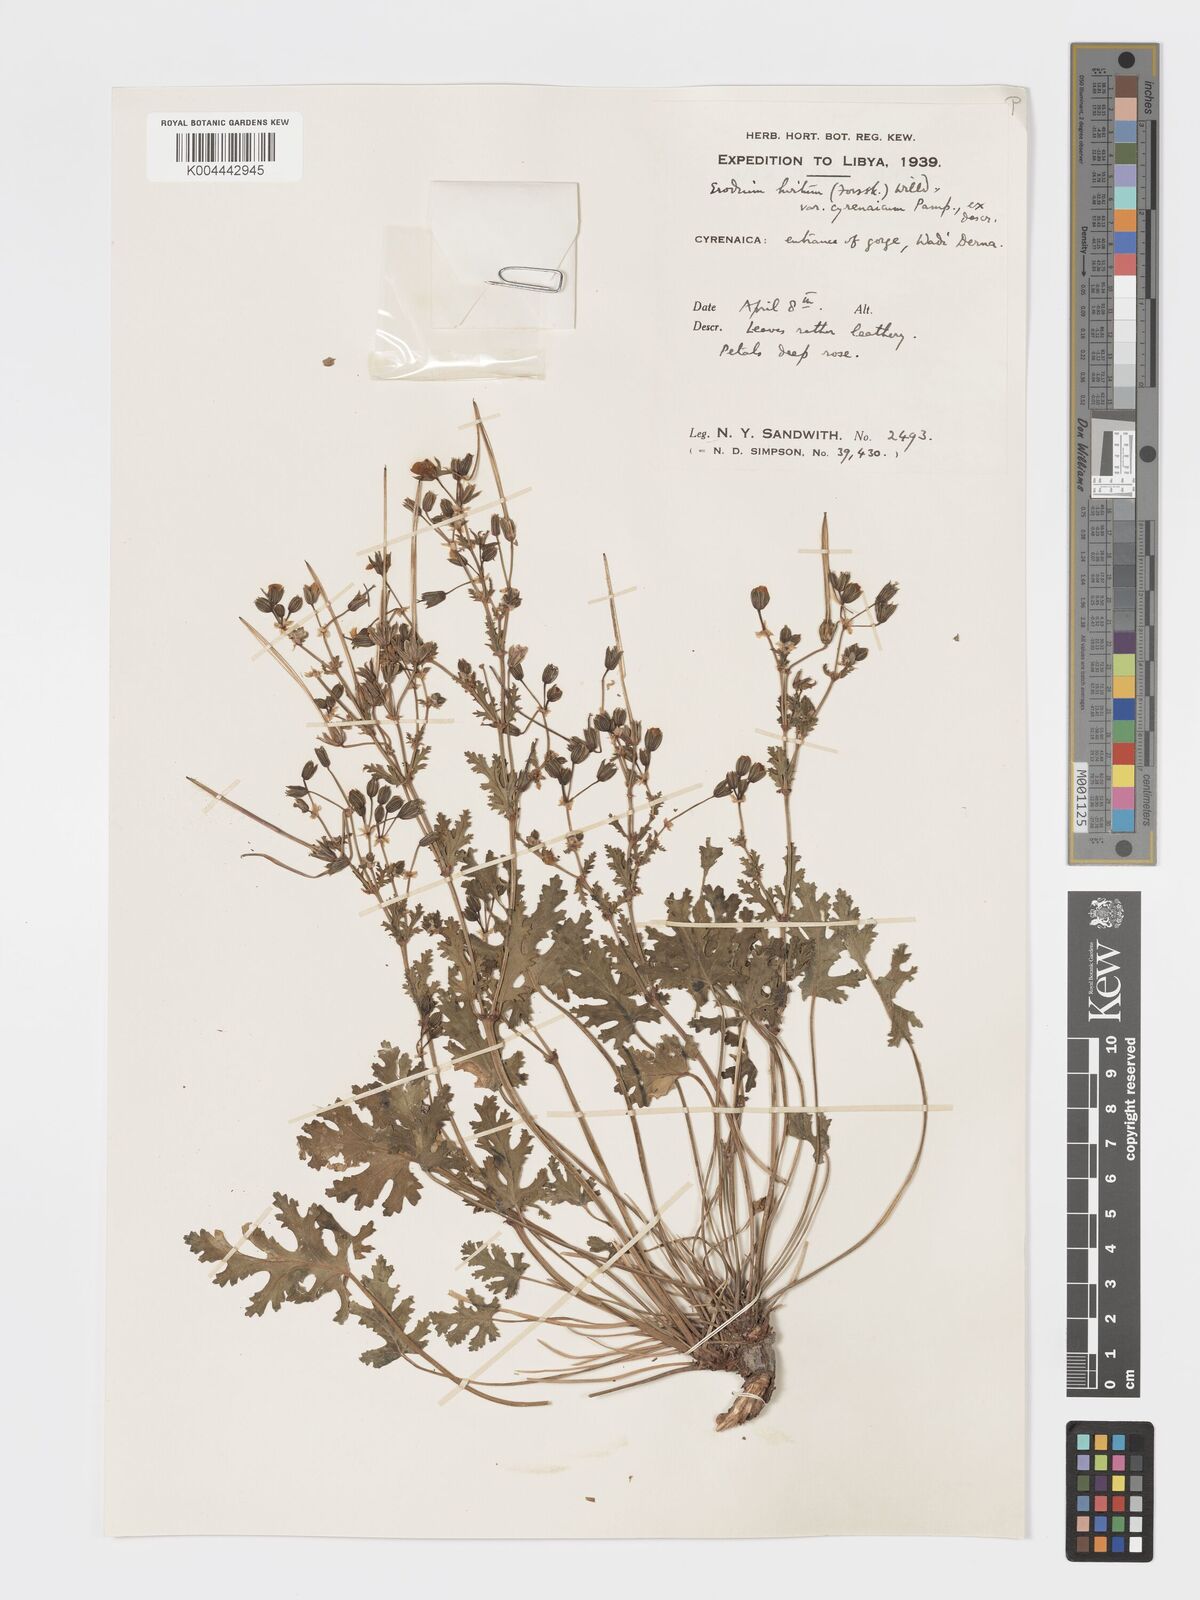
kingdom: Plantae
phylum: Tracheophyta
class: Magnoliopsida
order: Geraniales
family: Geraniaceae
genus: Erodium
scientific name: Erodium cyrenaicum
